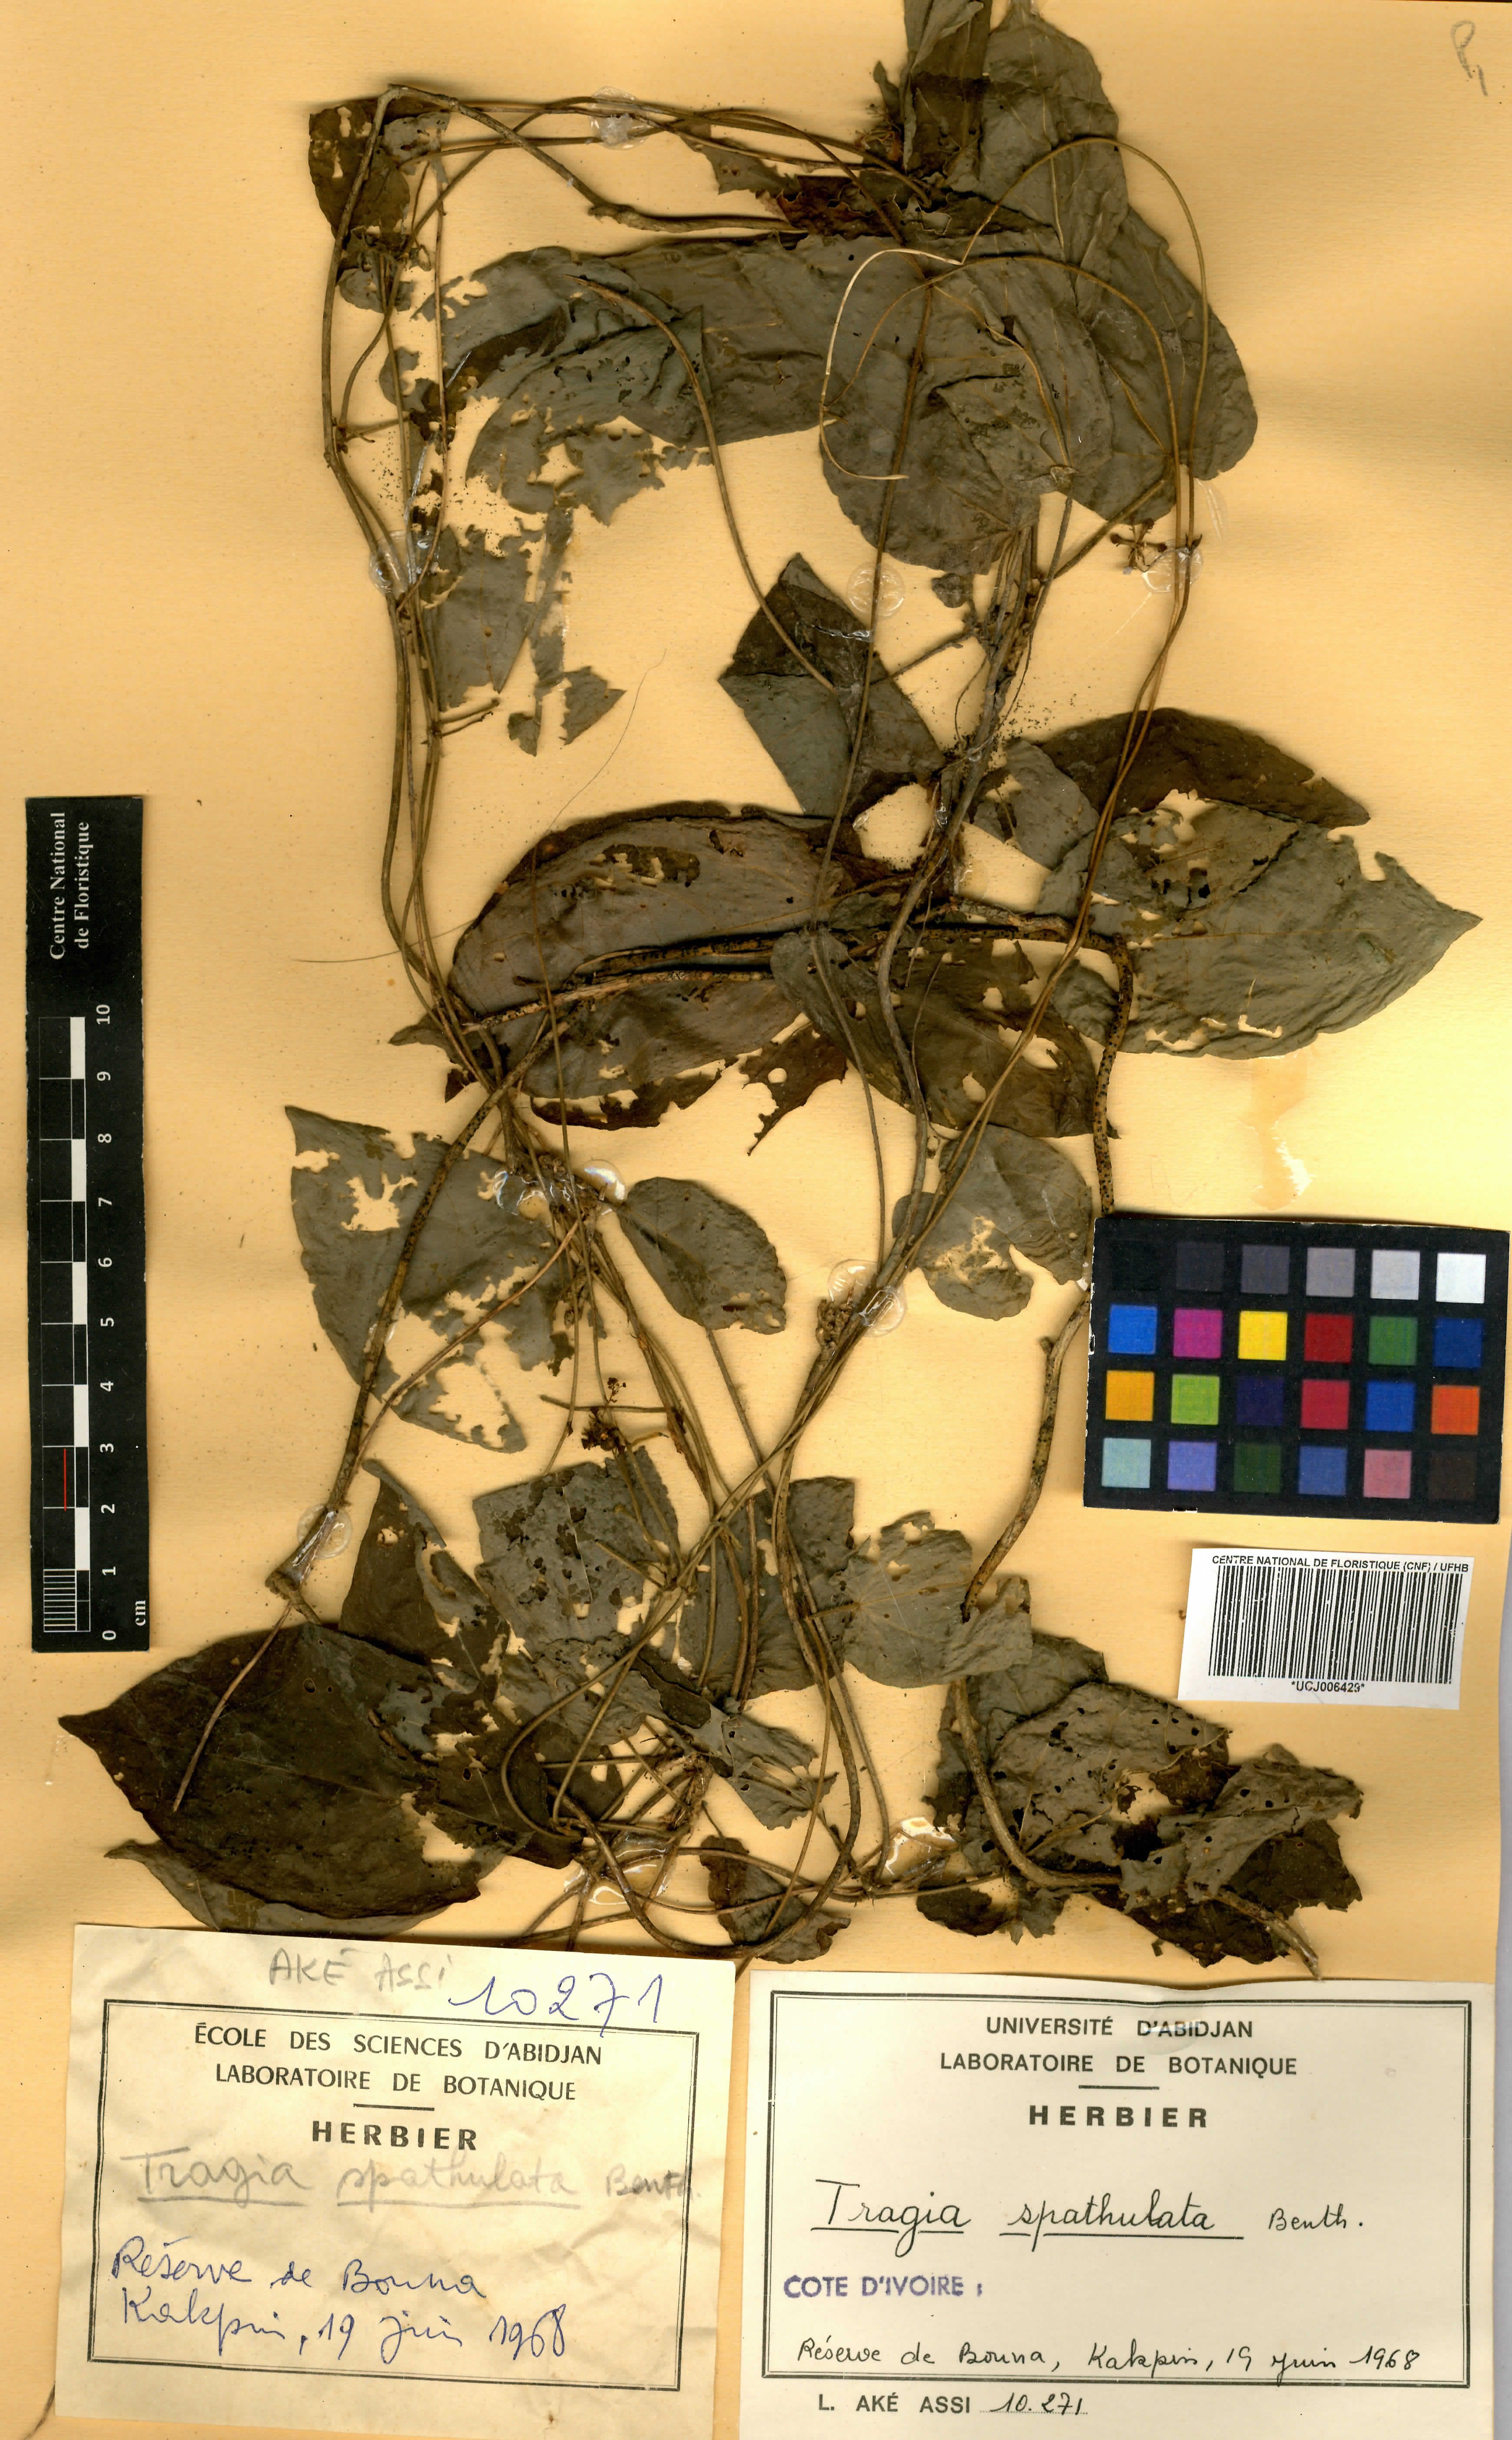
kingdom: Plantae
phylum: Tracheophyta
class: Magnoliopsida
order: Malpighiales
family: Euphorbiaceae
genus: Tragia
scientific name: Tragia spathulata
